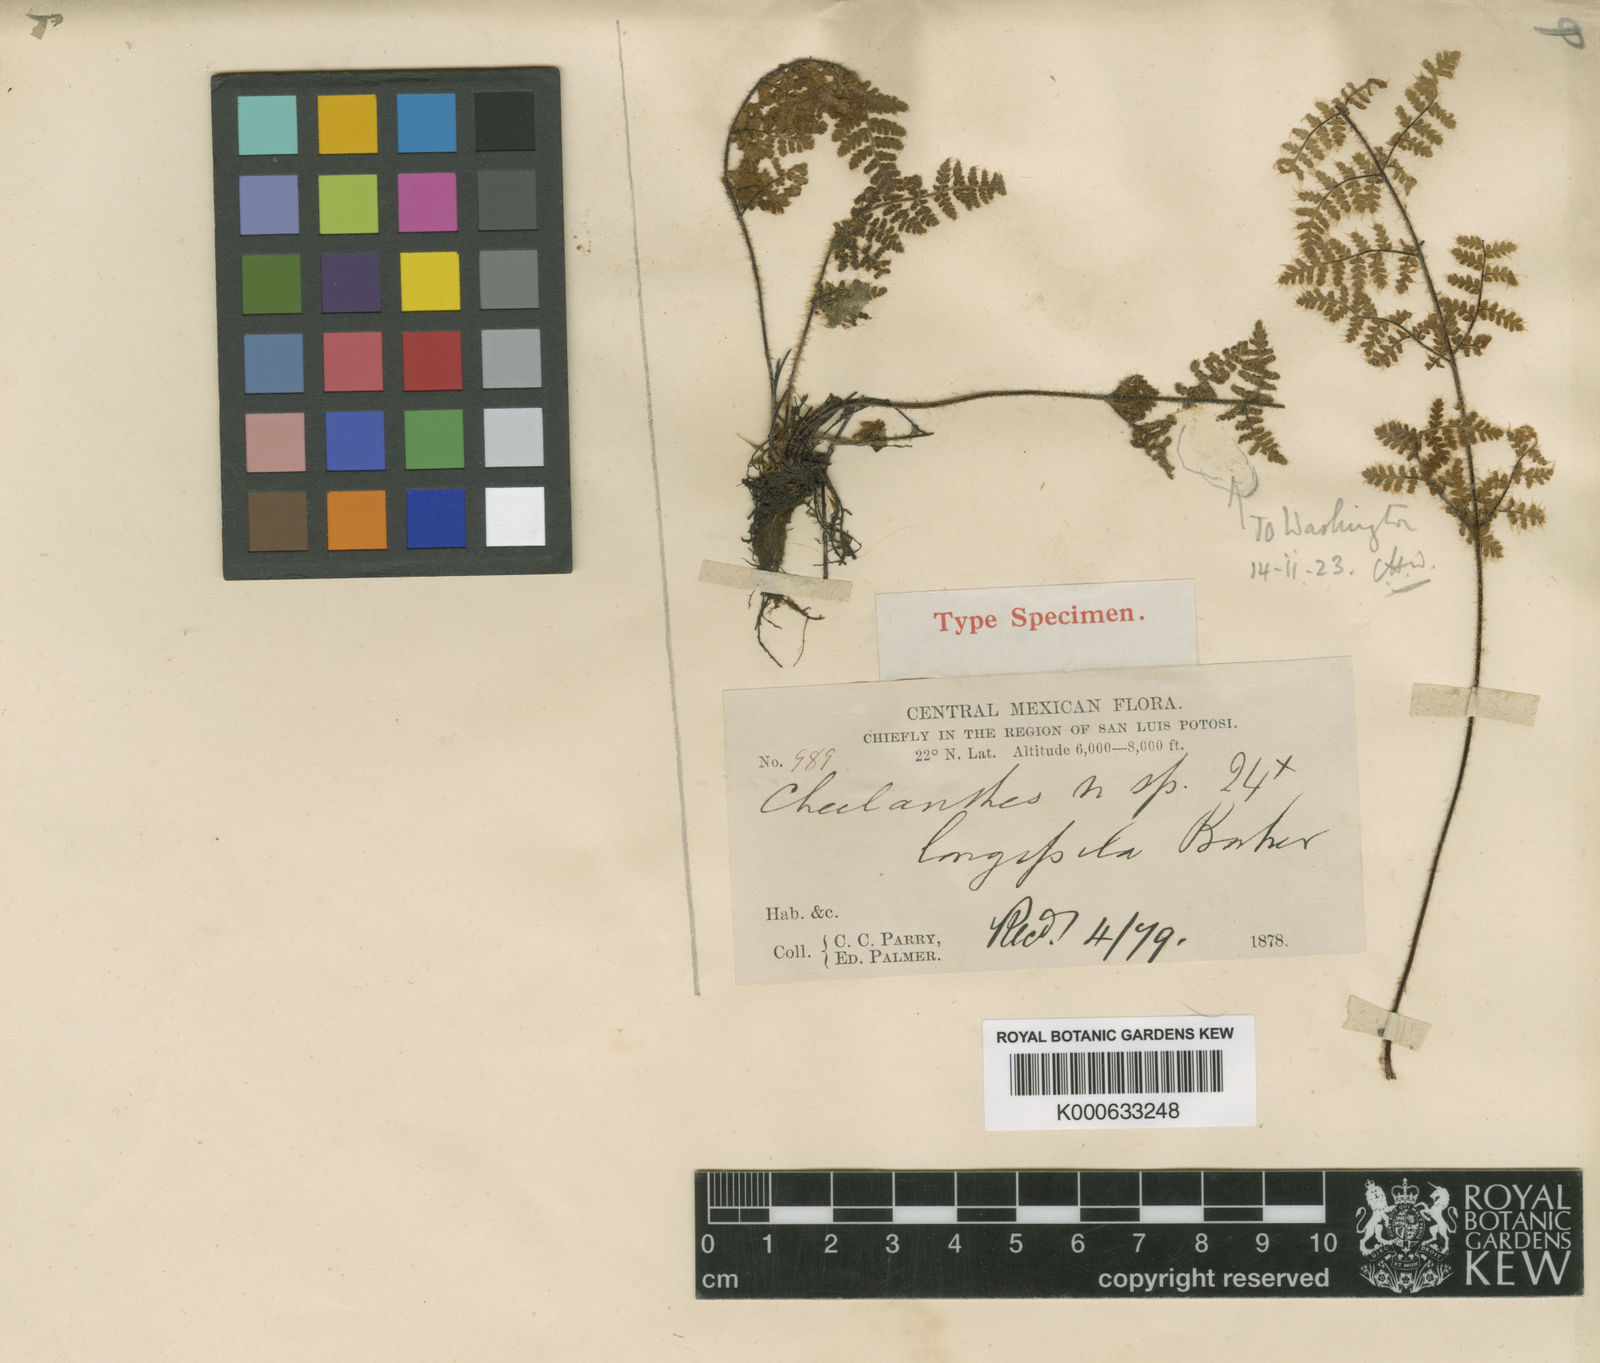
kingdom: Plantae
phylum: Tracheophyta
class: Polypodiopsida
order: Polypodiales
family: Pteridaceae
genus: Myriopteris
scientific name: Myriopteris longipila
